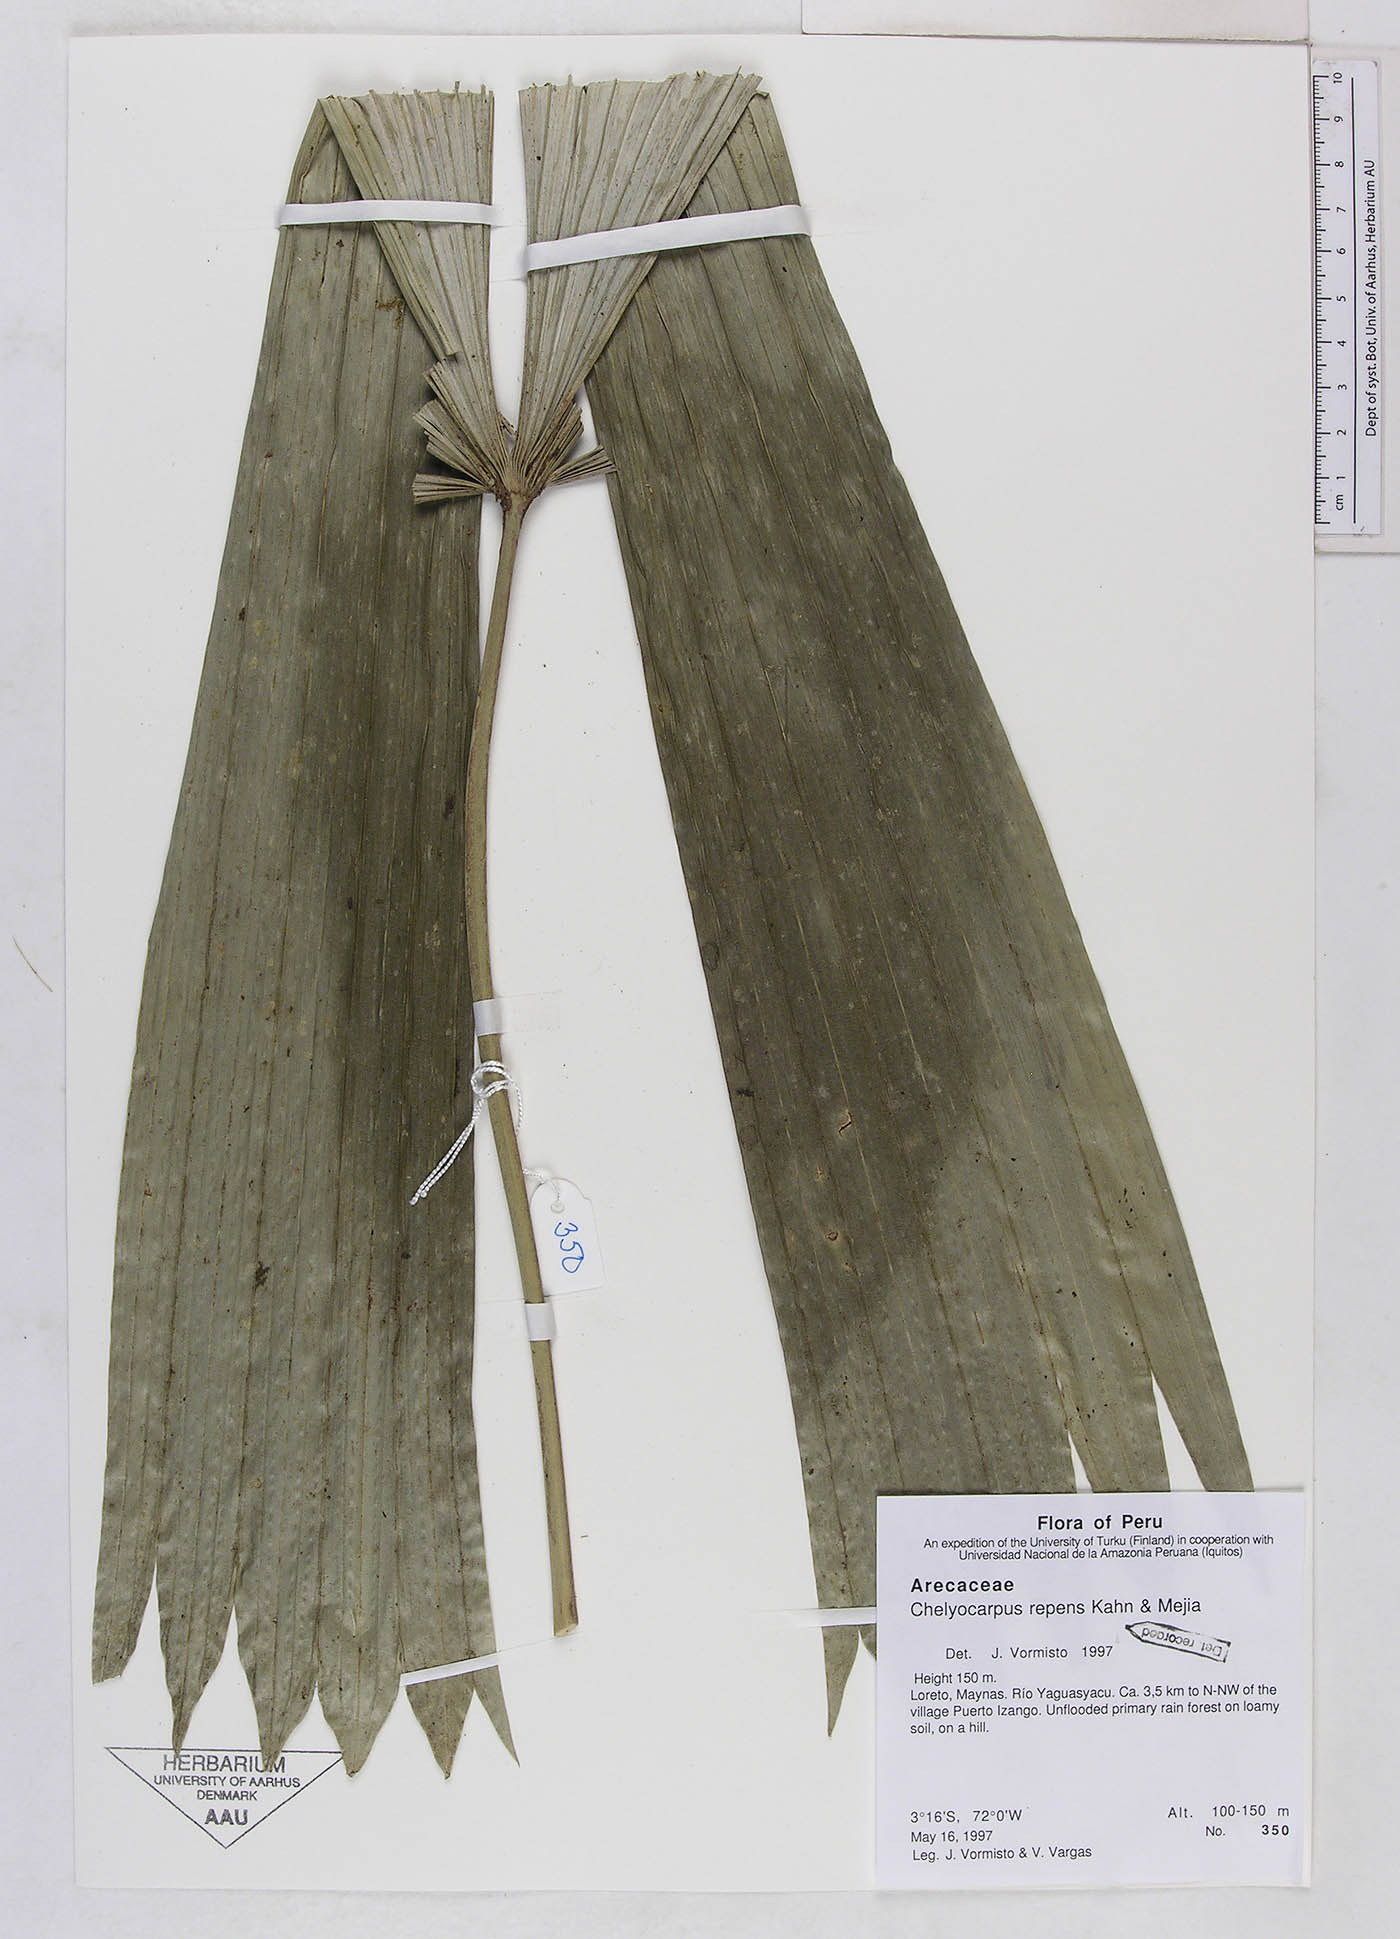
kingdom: Plantae
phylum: Tracheophyta
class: Liliopsida
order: Arecales
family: Arecaceae
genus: Chelyocarpus
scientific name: Chelyocarpus repens
